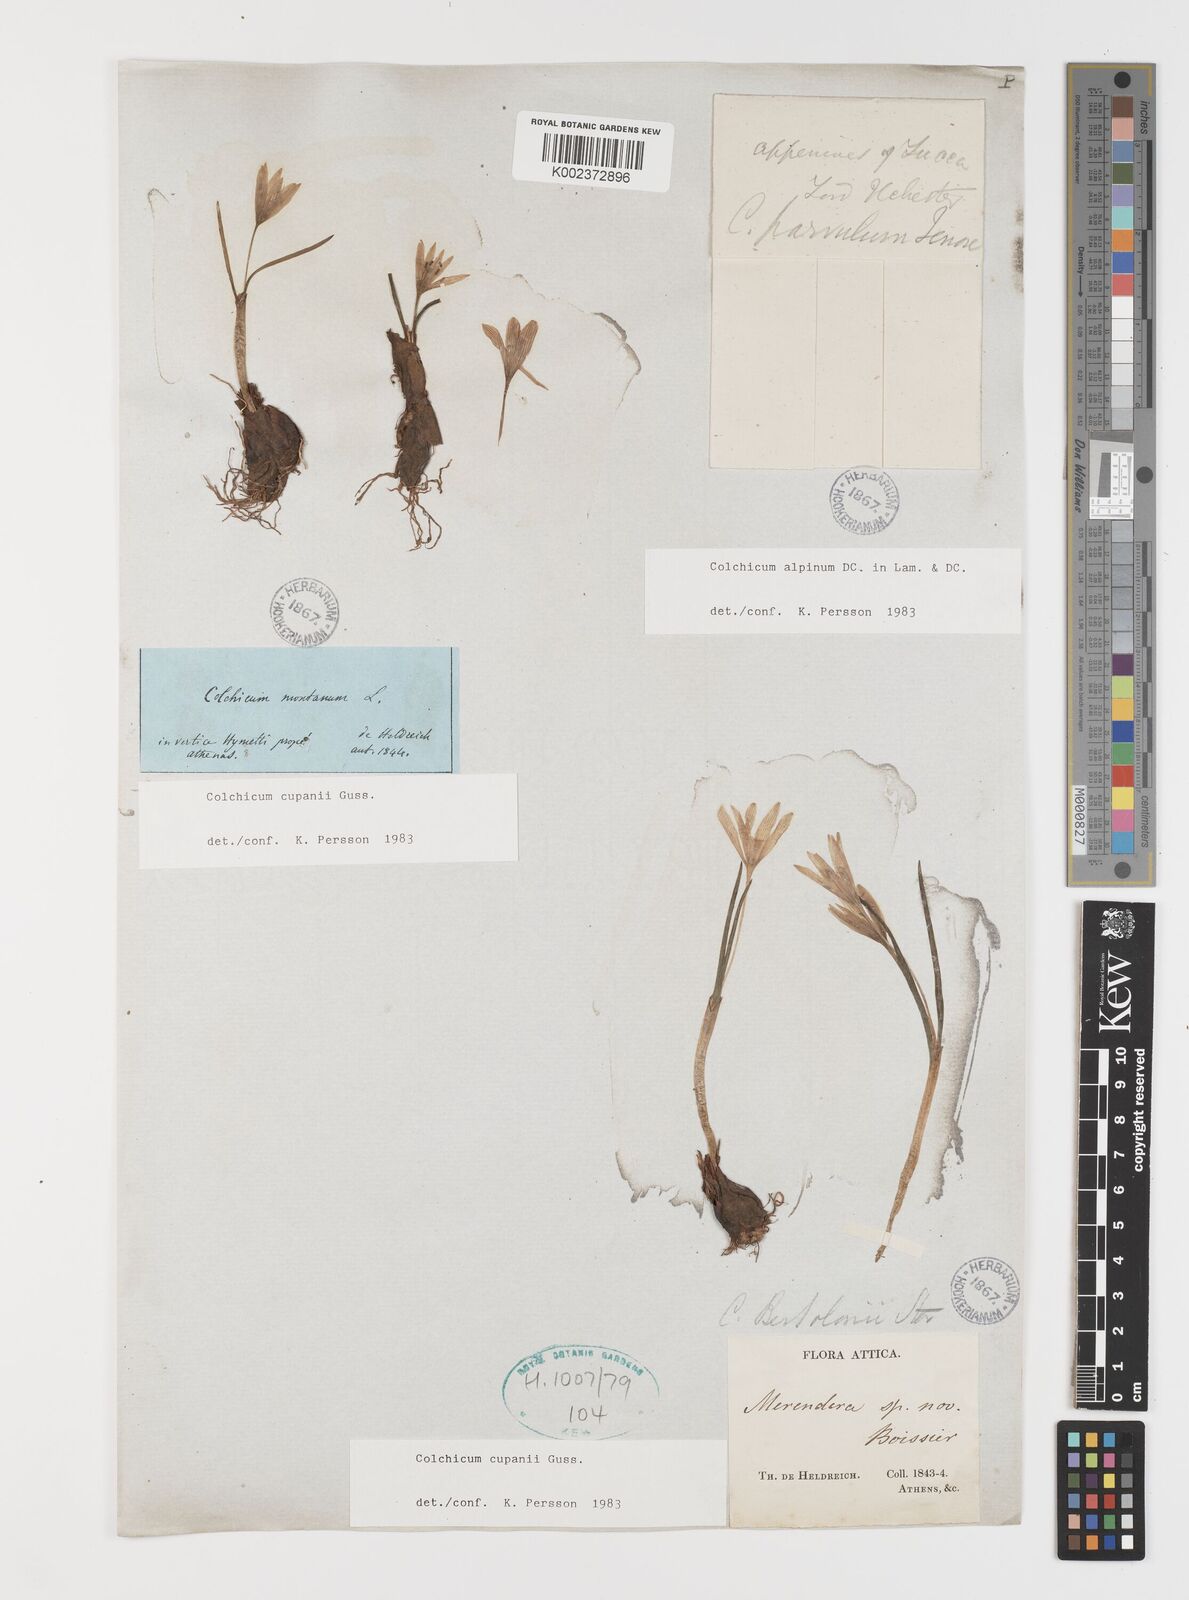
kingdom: Plantae
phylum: Tracheophyta
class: Liliopsida
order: Liliales
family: Colchicaceae
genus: Colchicum
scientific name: Colchicum cupanii
